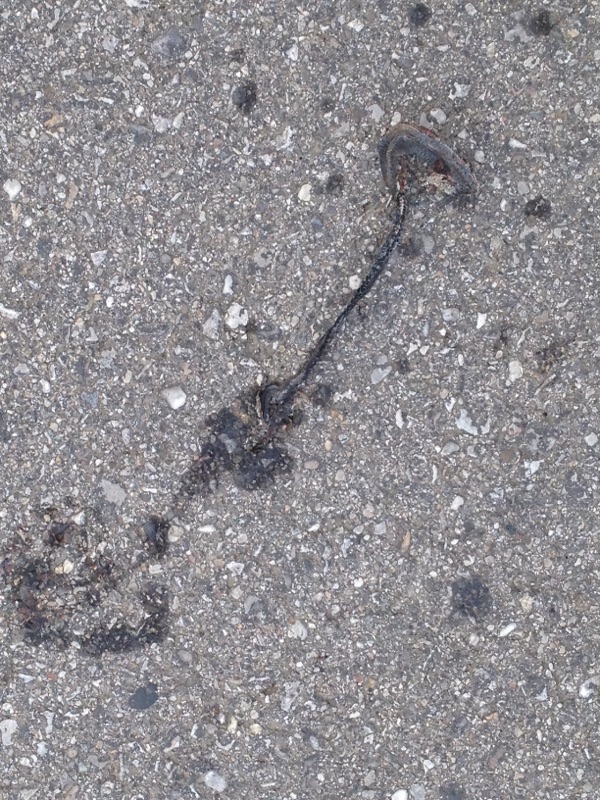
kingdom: Animalia
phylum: Chordata
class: Squamata
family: Colubridae
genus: Natrix
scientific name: Natrix natrix
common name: Grass snake
